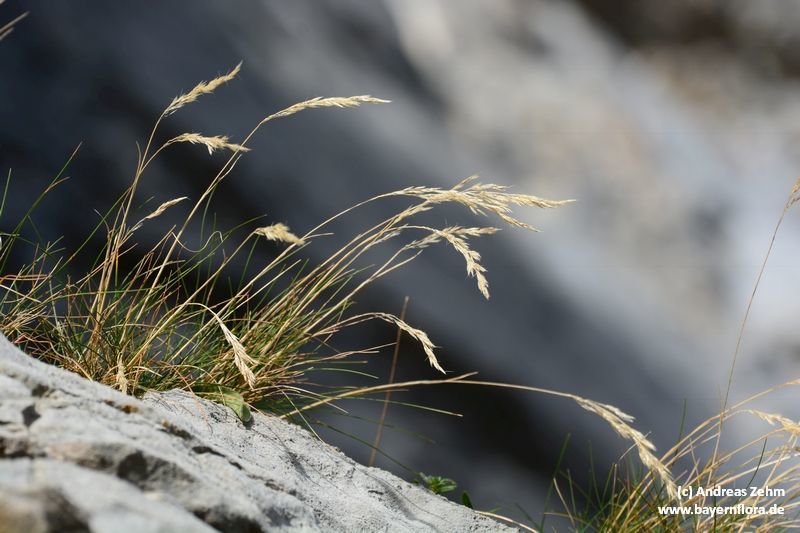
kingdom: Plantae
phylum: Tracheophyta
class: Liliopsida
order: Poales
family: Poaceae
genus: Alpagrostis
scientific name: Alpagrostis schleicheri
